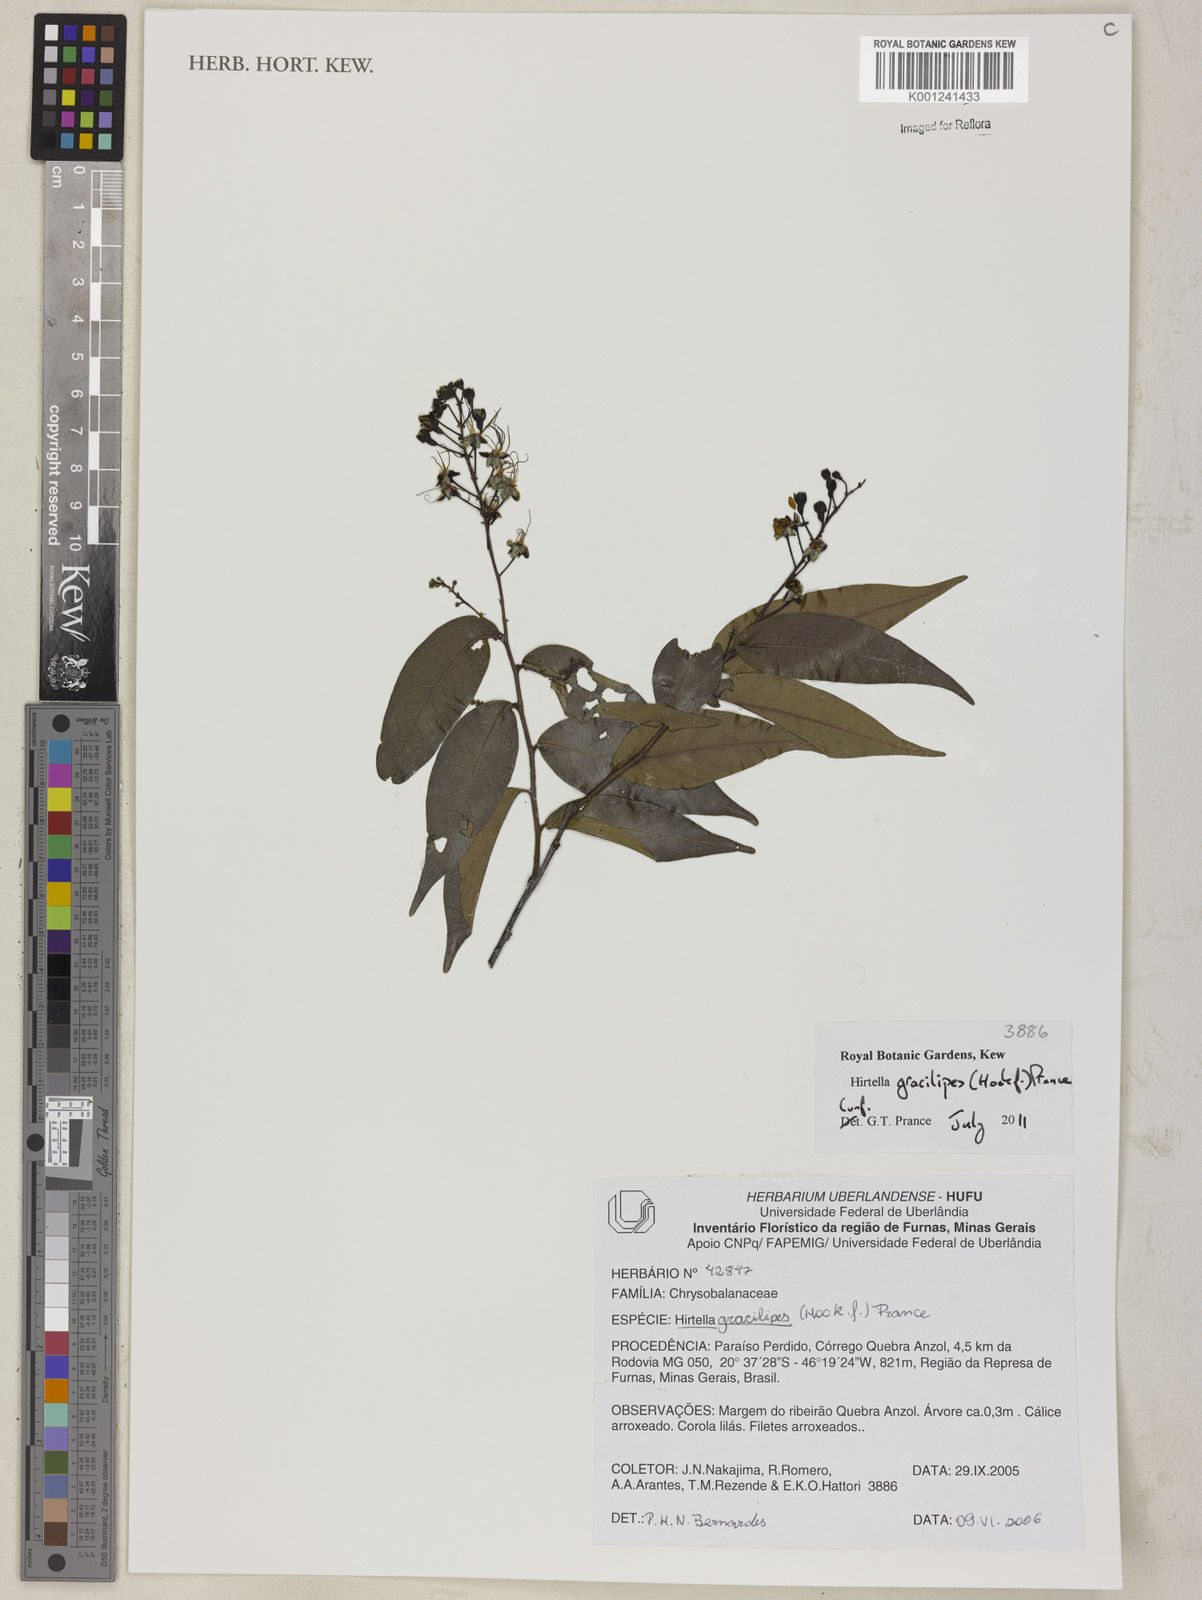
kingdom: Plantae
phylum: Tracheophyta
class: Magnoliopsida
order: Malpighiales
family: Chrysobalanaceae
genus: Hirtella
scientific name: Hirtella gracilipes
